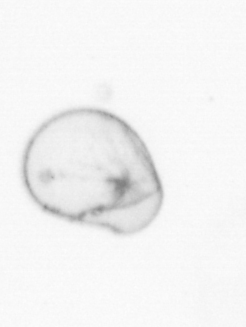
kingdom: Chromista
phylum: Myzozoa
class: Dinophyceae
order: Noctilucales
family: Noctilucaceae
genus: Noctiluca
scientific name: Noctiluca scintillans
